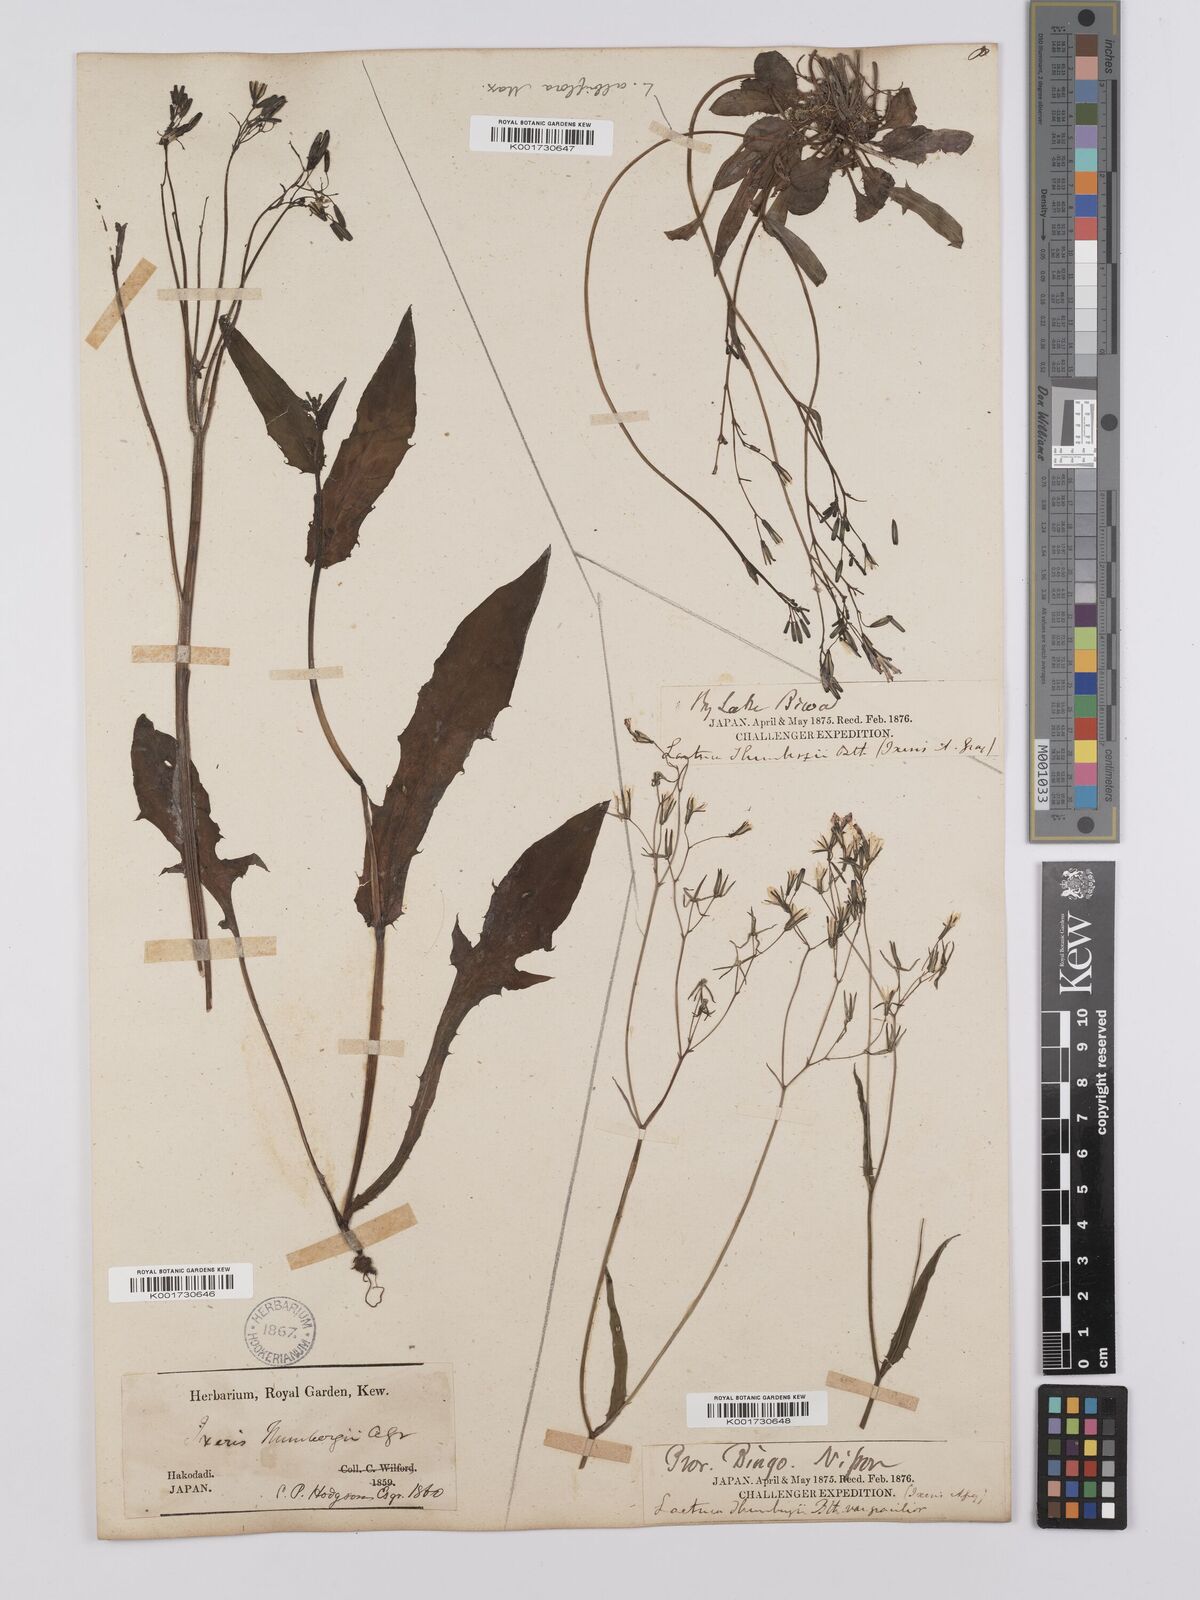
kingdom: Plantae
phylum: Tracheophyta
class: Magnoliopsida
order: Asterales
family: Asteraceae
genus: Ixeridium
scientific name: Ixeridium dentatum
